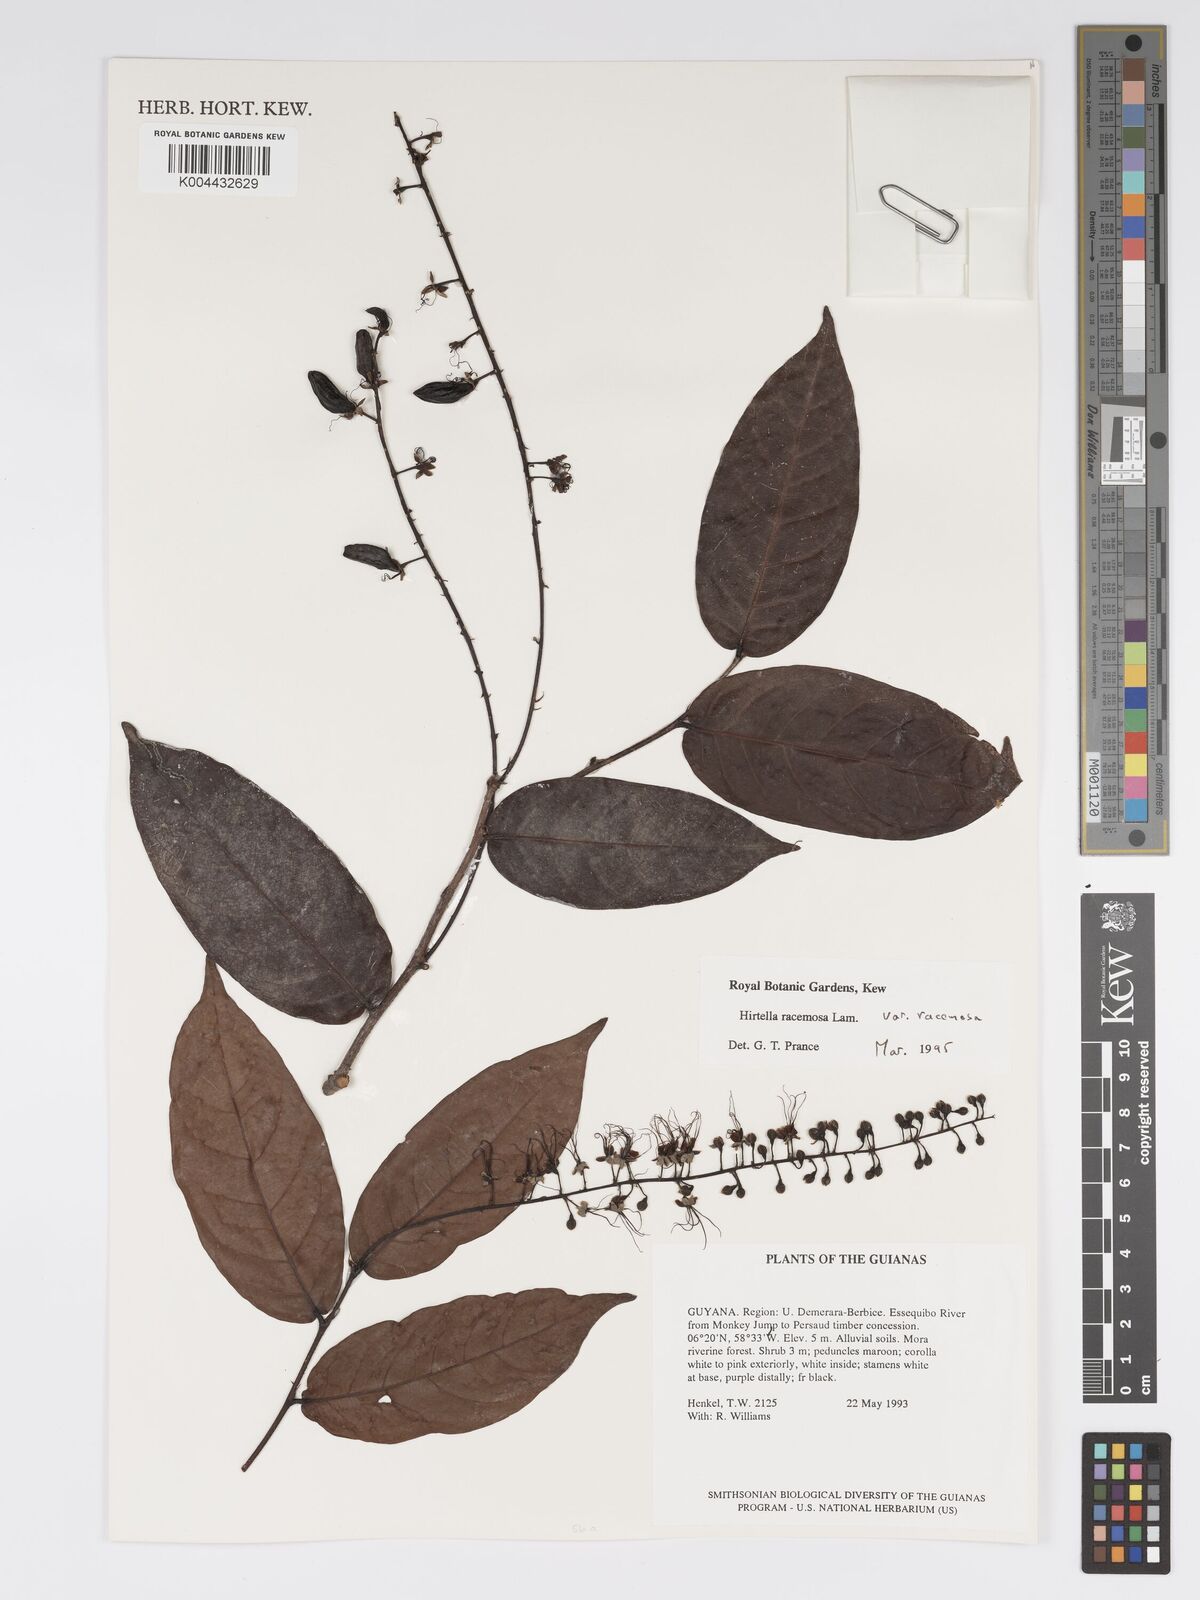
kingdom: Plantae
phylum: Tracheophyta
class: Magnoliopsida
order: Malpighiales
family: Chrysobalanaceae
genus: Hirtella
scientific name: Hirtella racemosa
